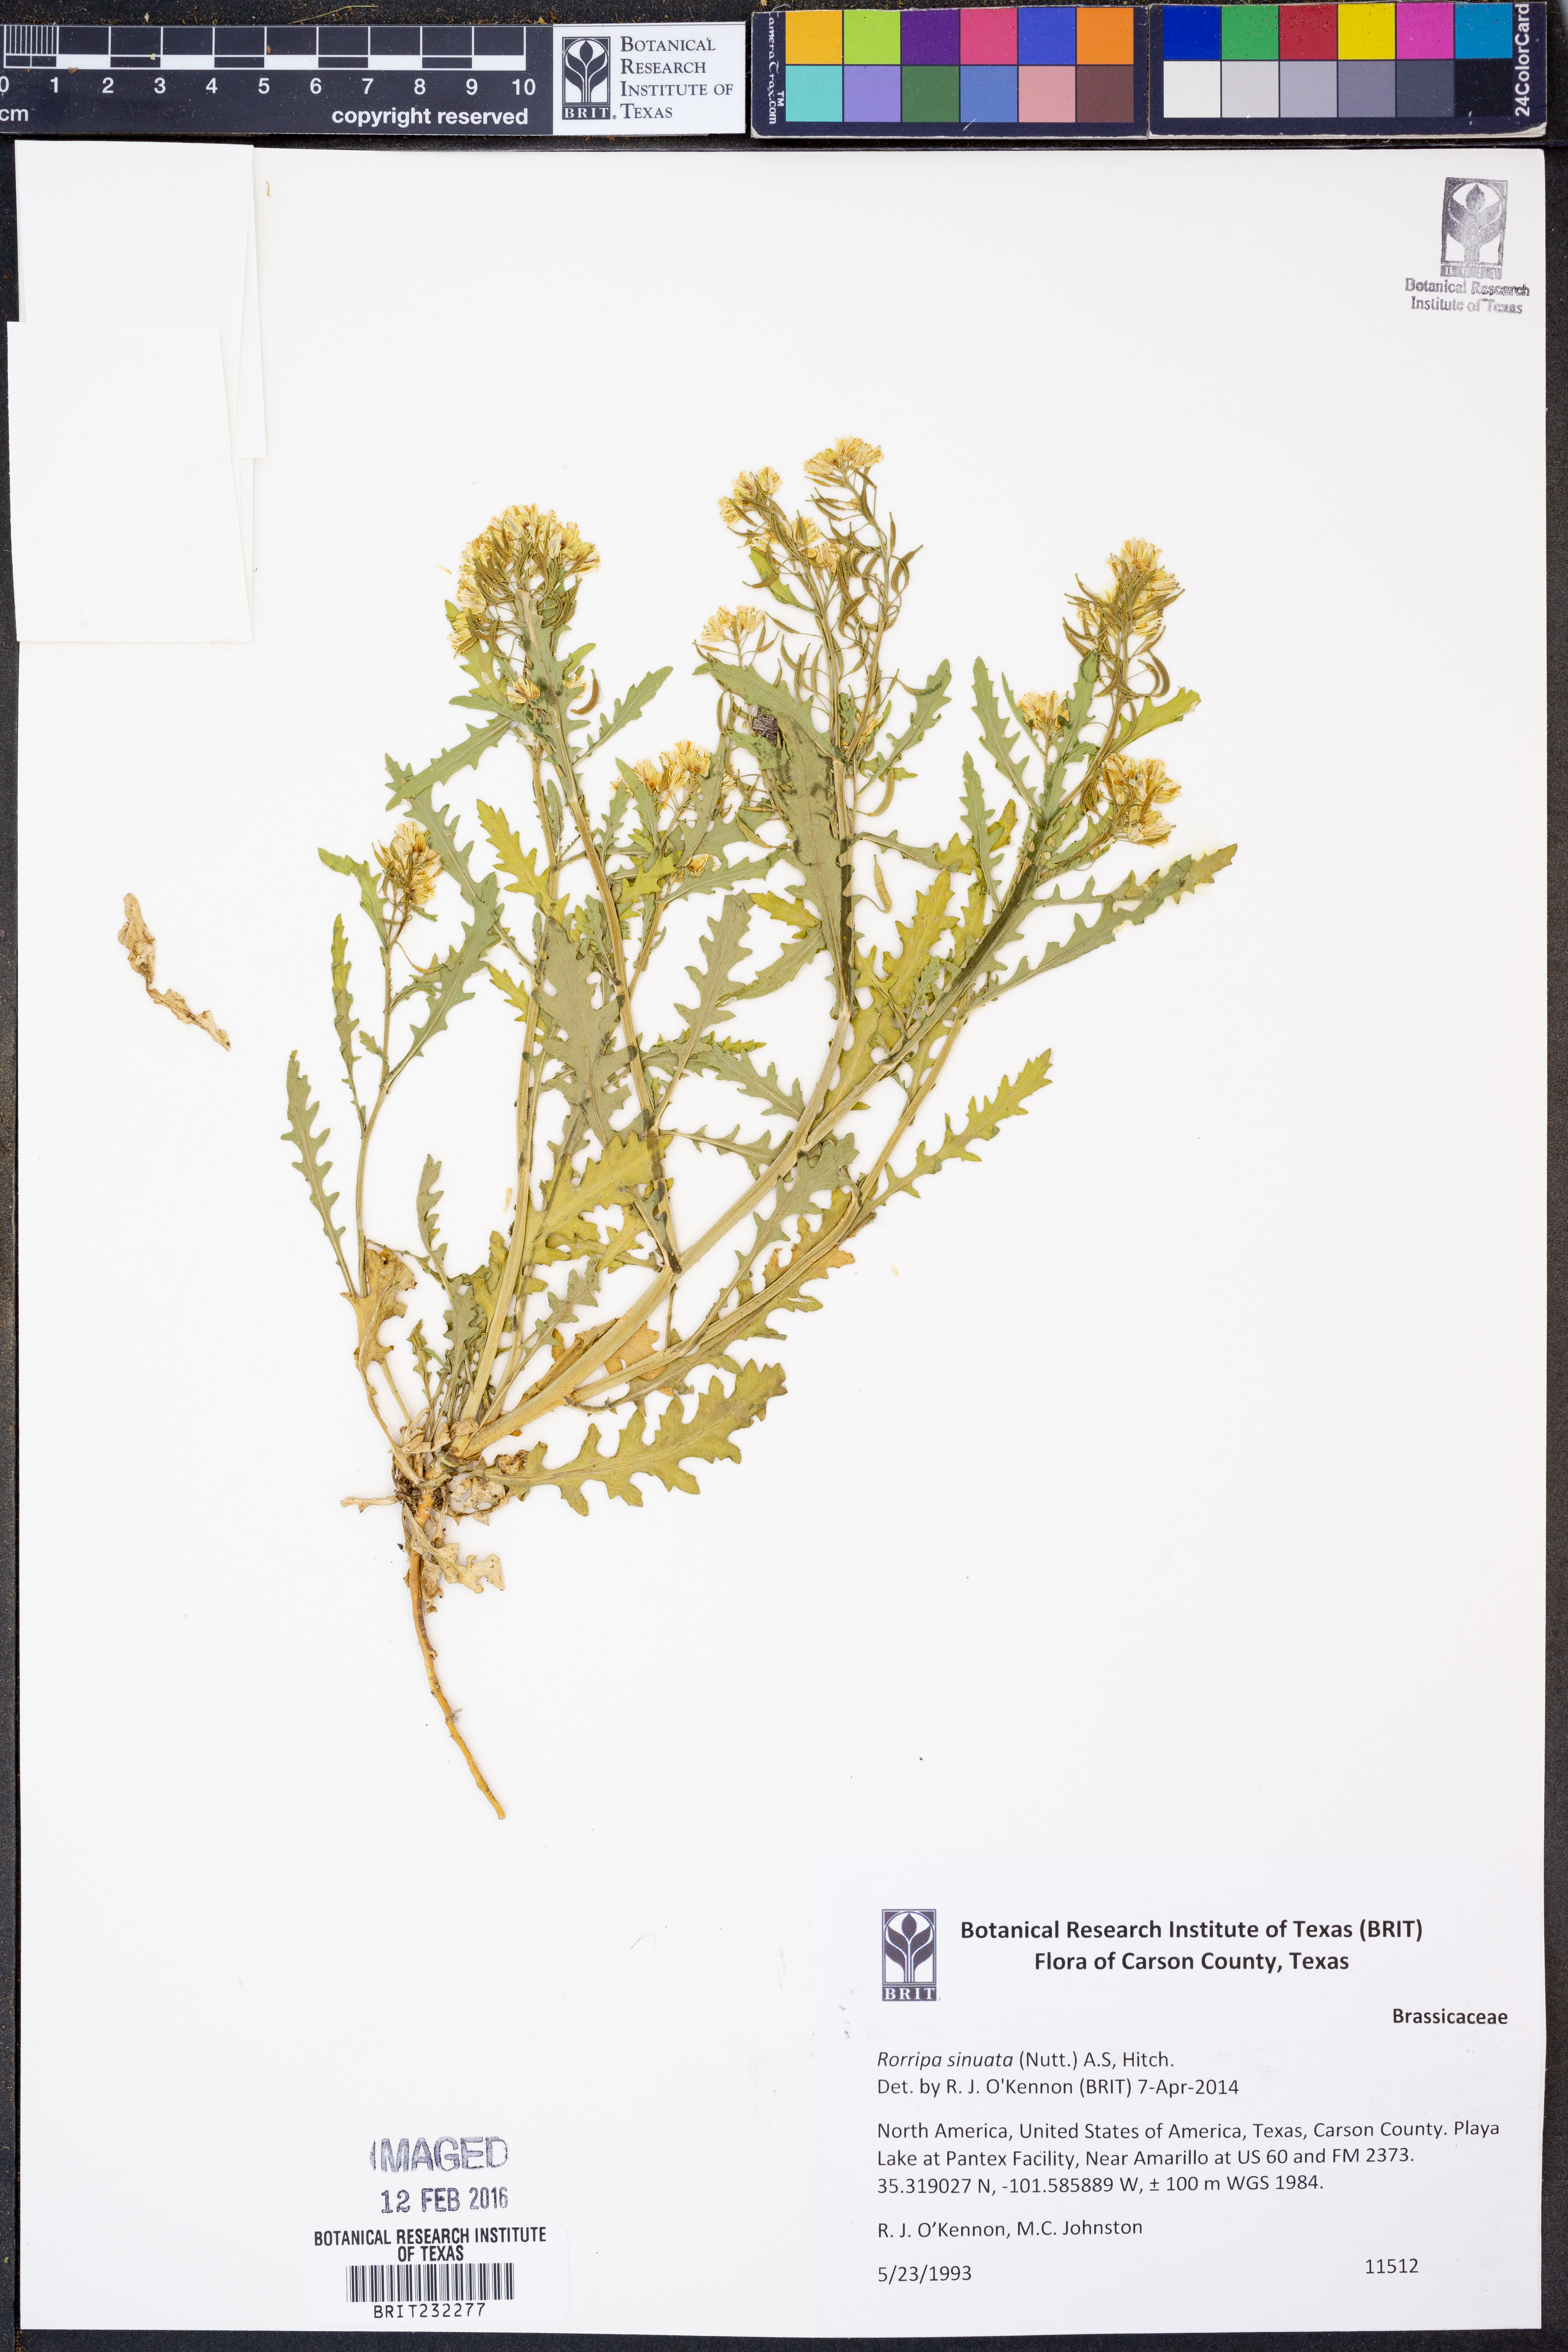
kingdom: Plantae
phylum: Tracheophyta
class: Magnoliopsida
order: Brassicales
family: Brassicaceae
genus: Rorippa
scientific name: Rorippa sinuata
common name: Spread yellow cress
